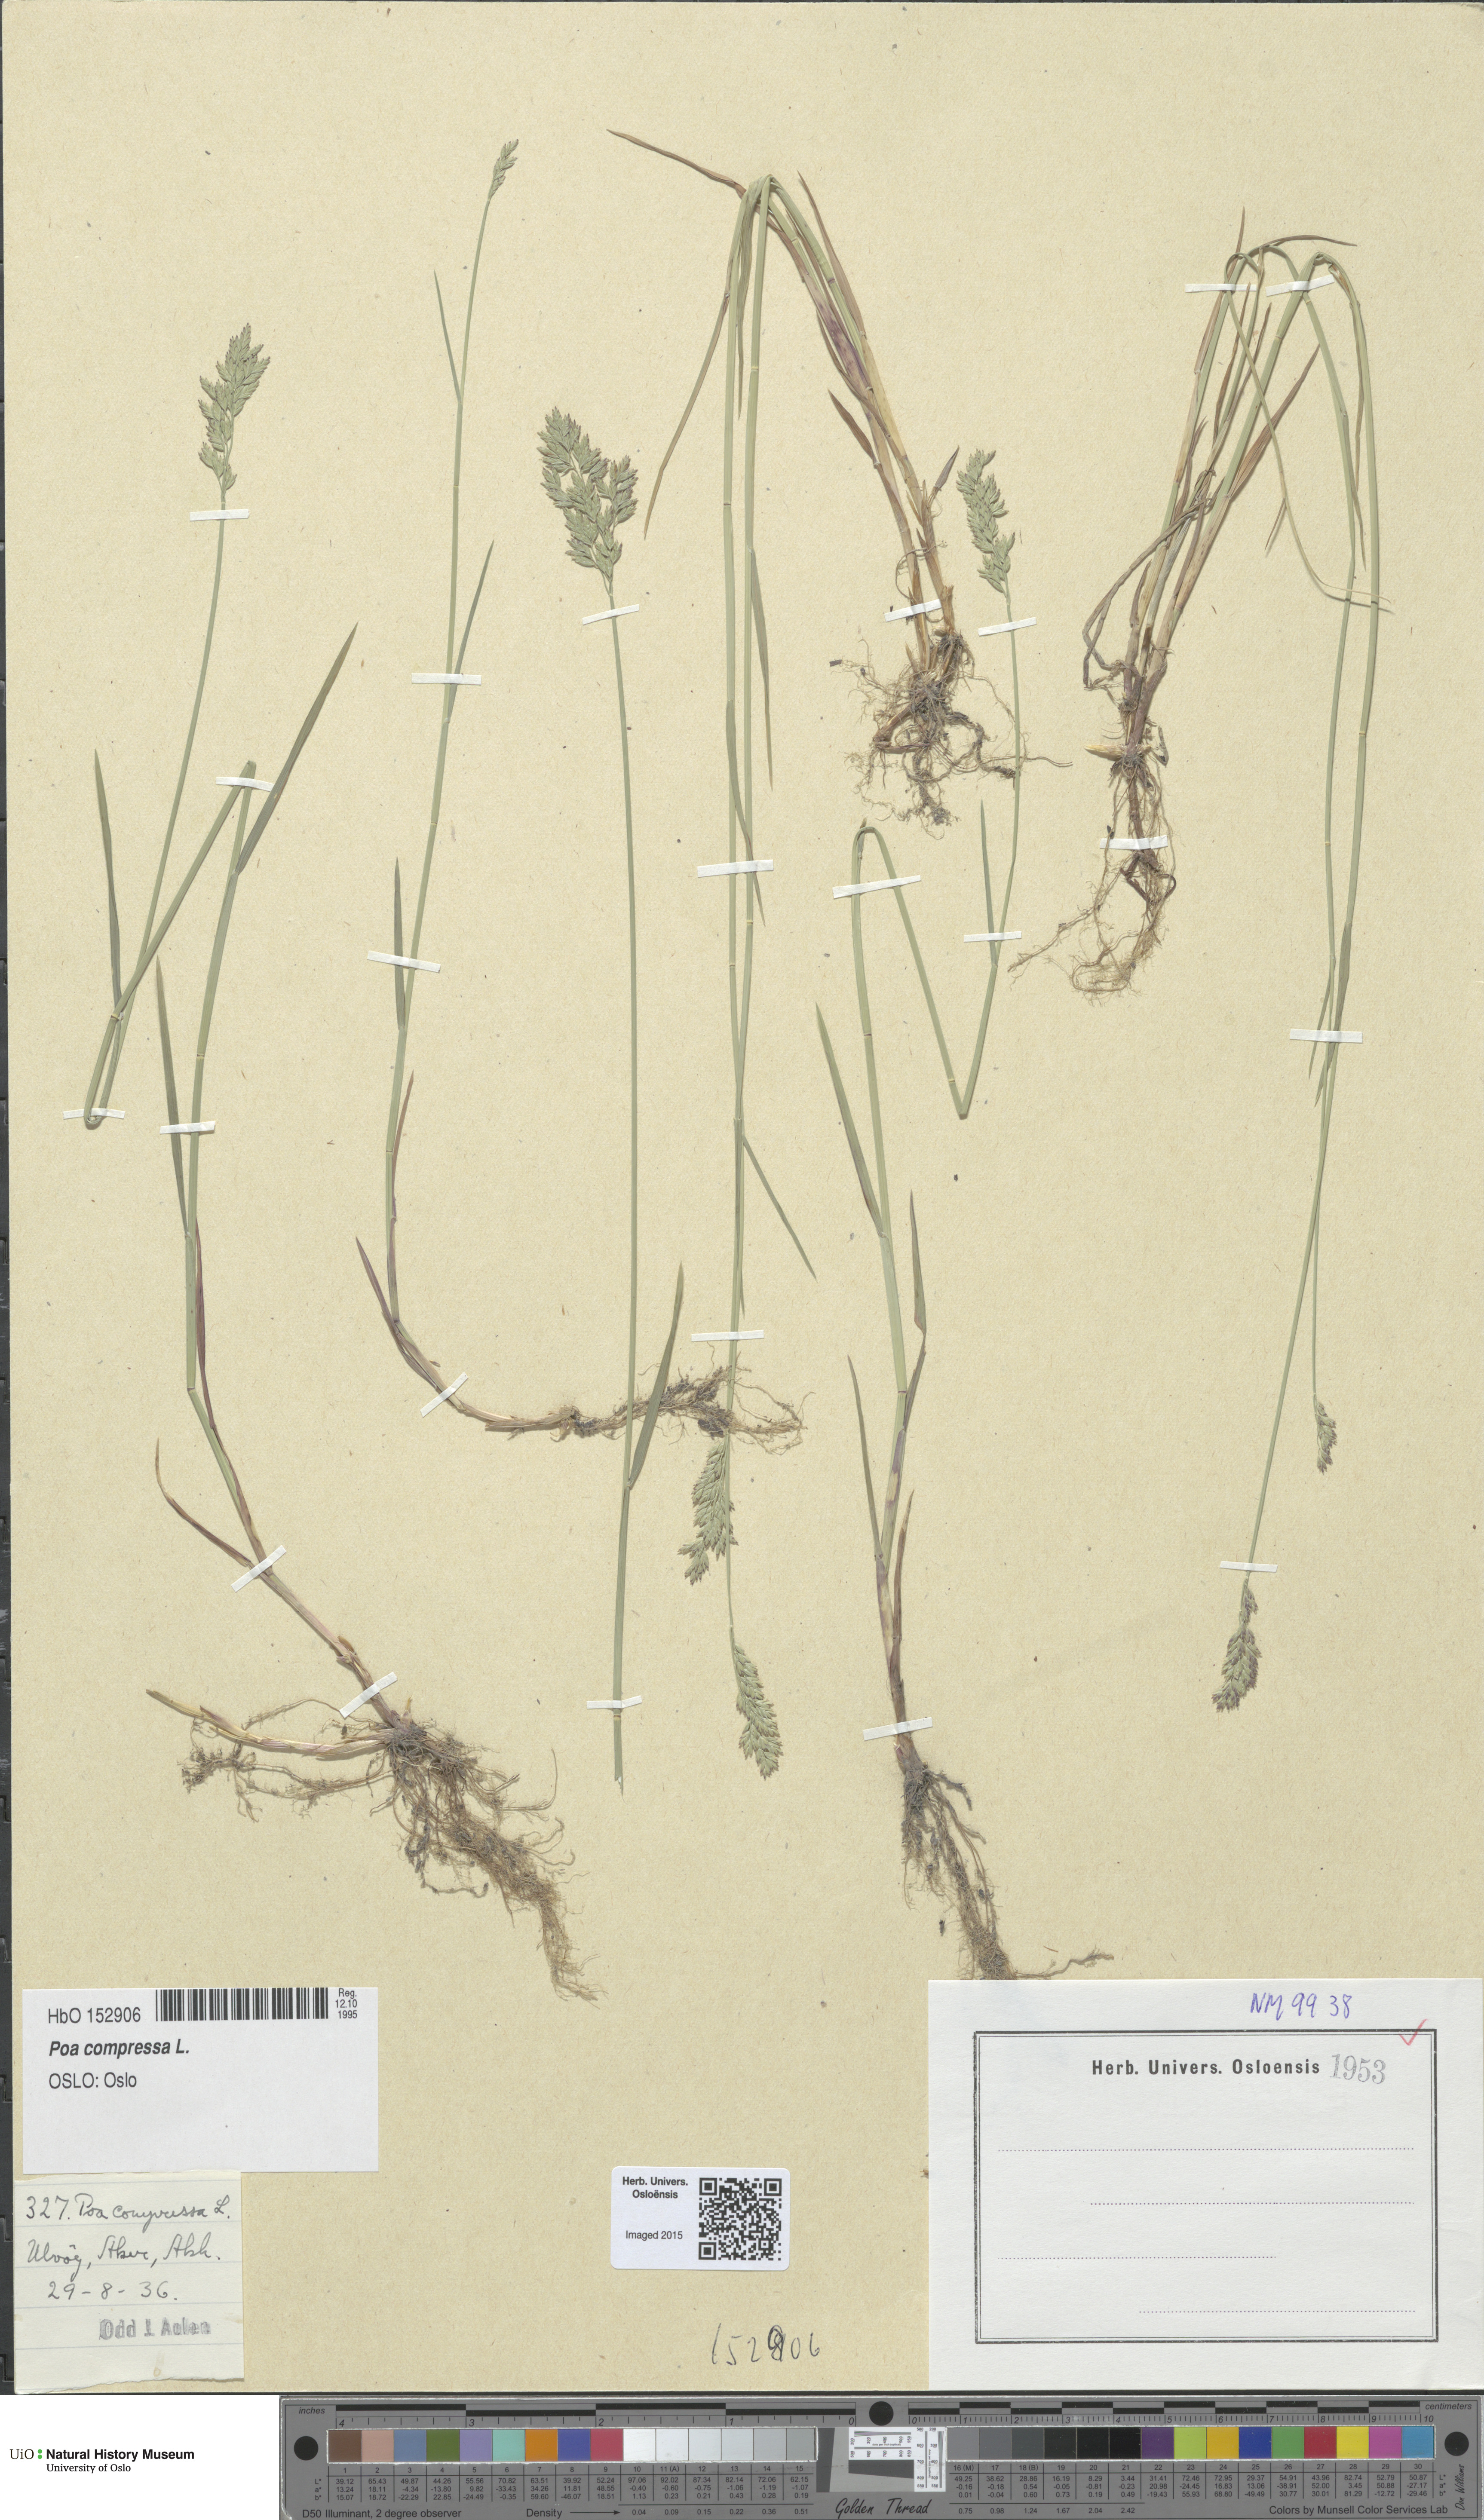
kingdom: Plantae
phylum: Tracheophyta
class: Liliopsida
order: Poales
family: Poaceae
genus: Poa
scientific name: Poa compressa
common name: Canada bluegrass
